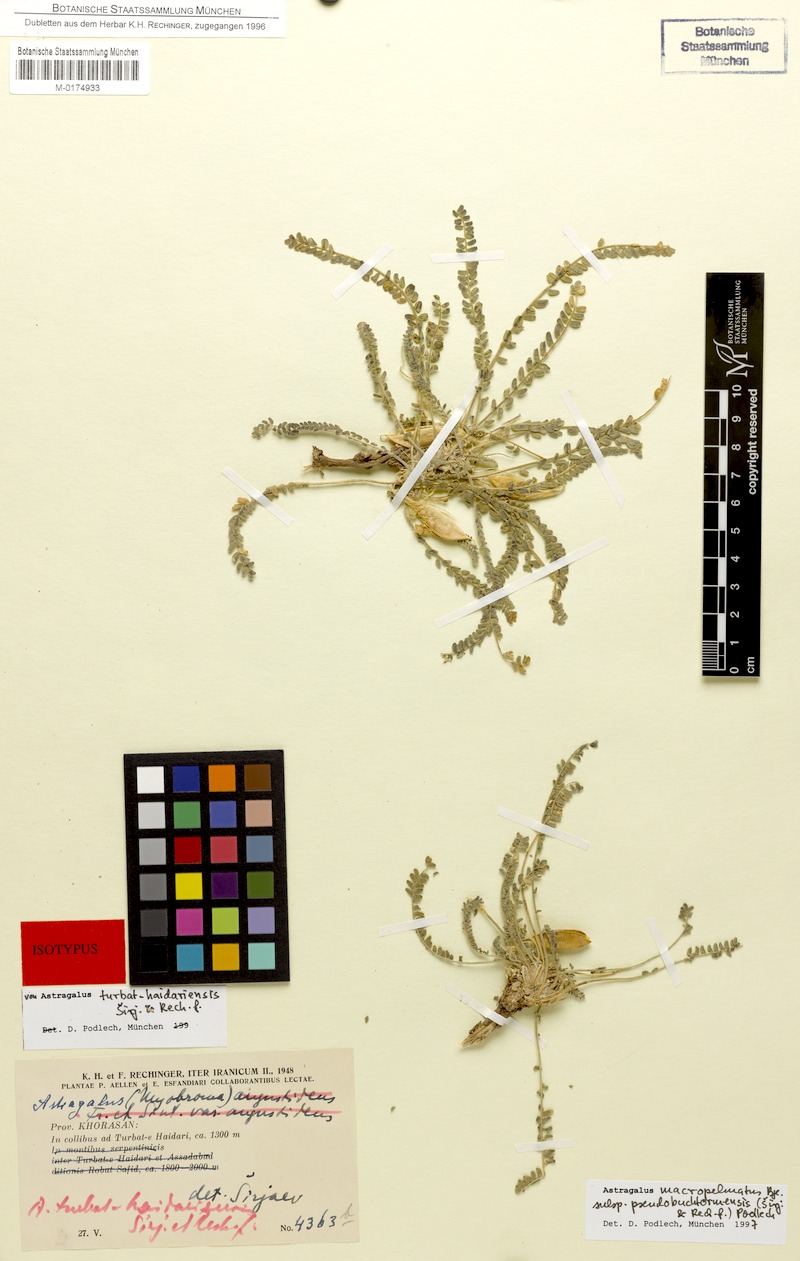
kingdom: Plantae
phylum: Tracheophyta
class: Magnoliopsida
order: Fabales
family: Fabaceae
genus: Astragalus
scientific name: Astragalus macropelmatus
